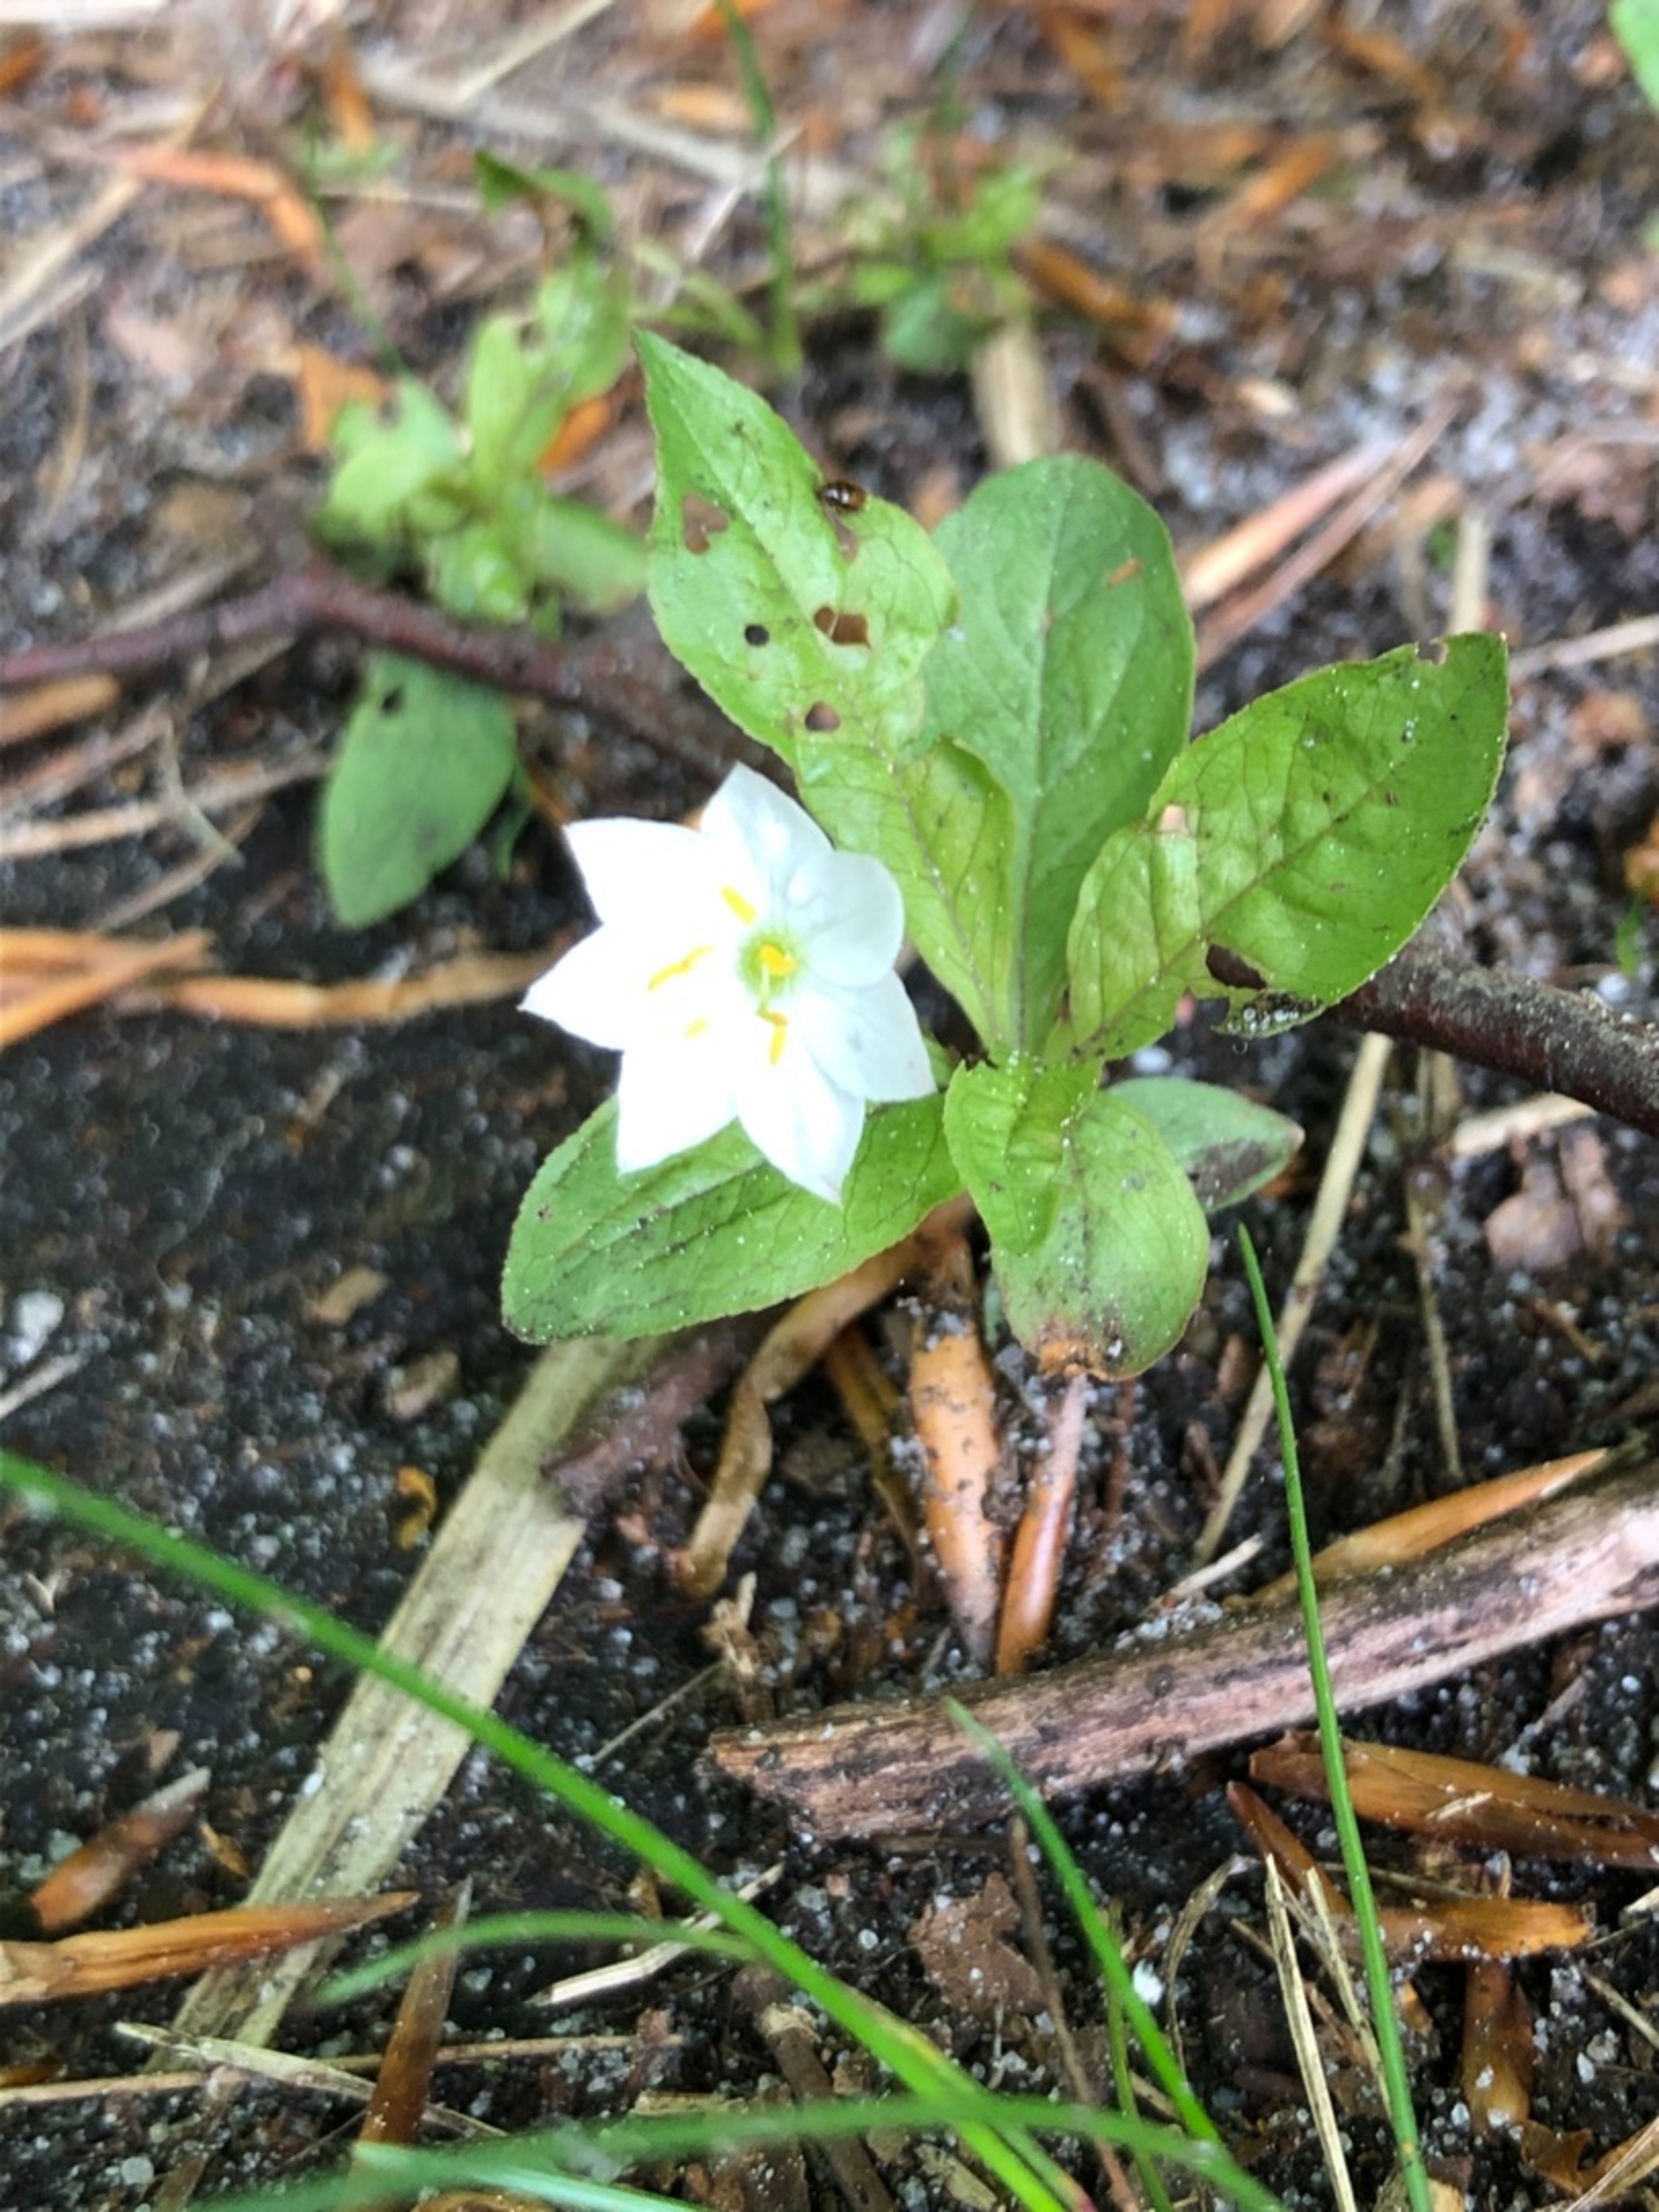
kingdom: Plantae
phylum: Tracheophyta
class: Magnoliopsida
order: Ericales
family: Primulaceae
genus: Lysimachia
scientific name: Lysimachia europaea
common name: Skovstjerne
